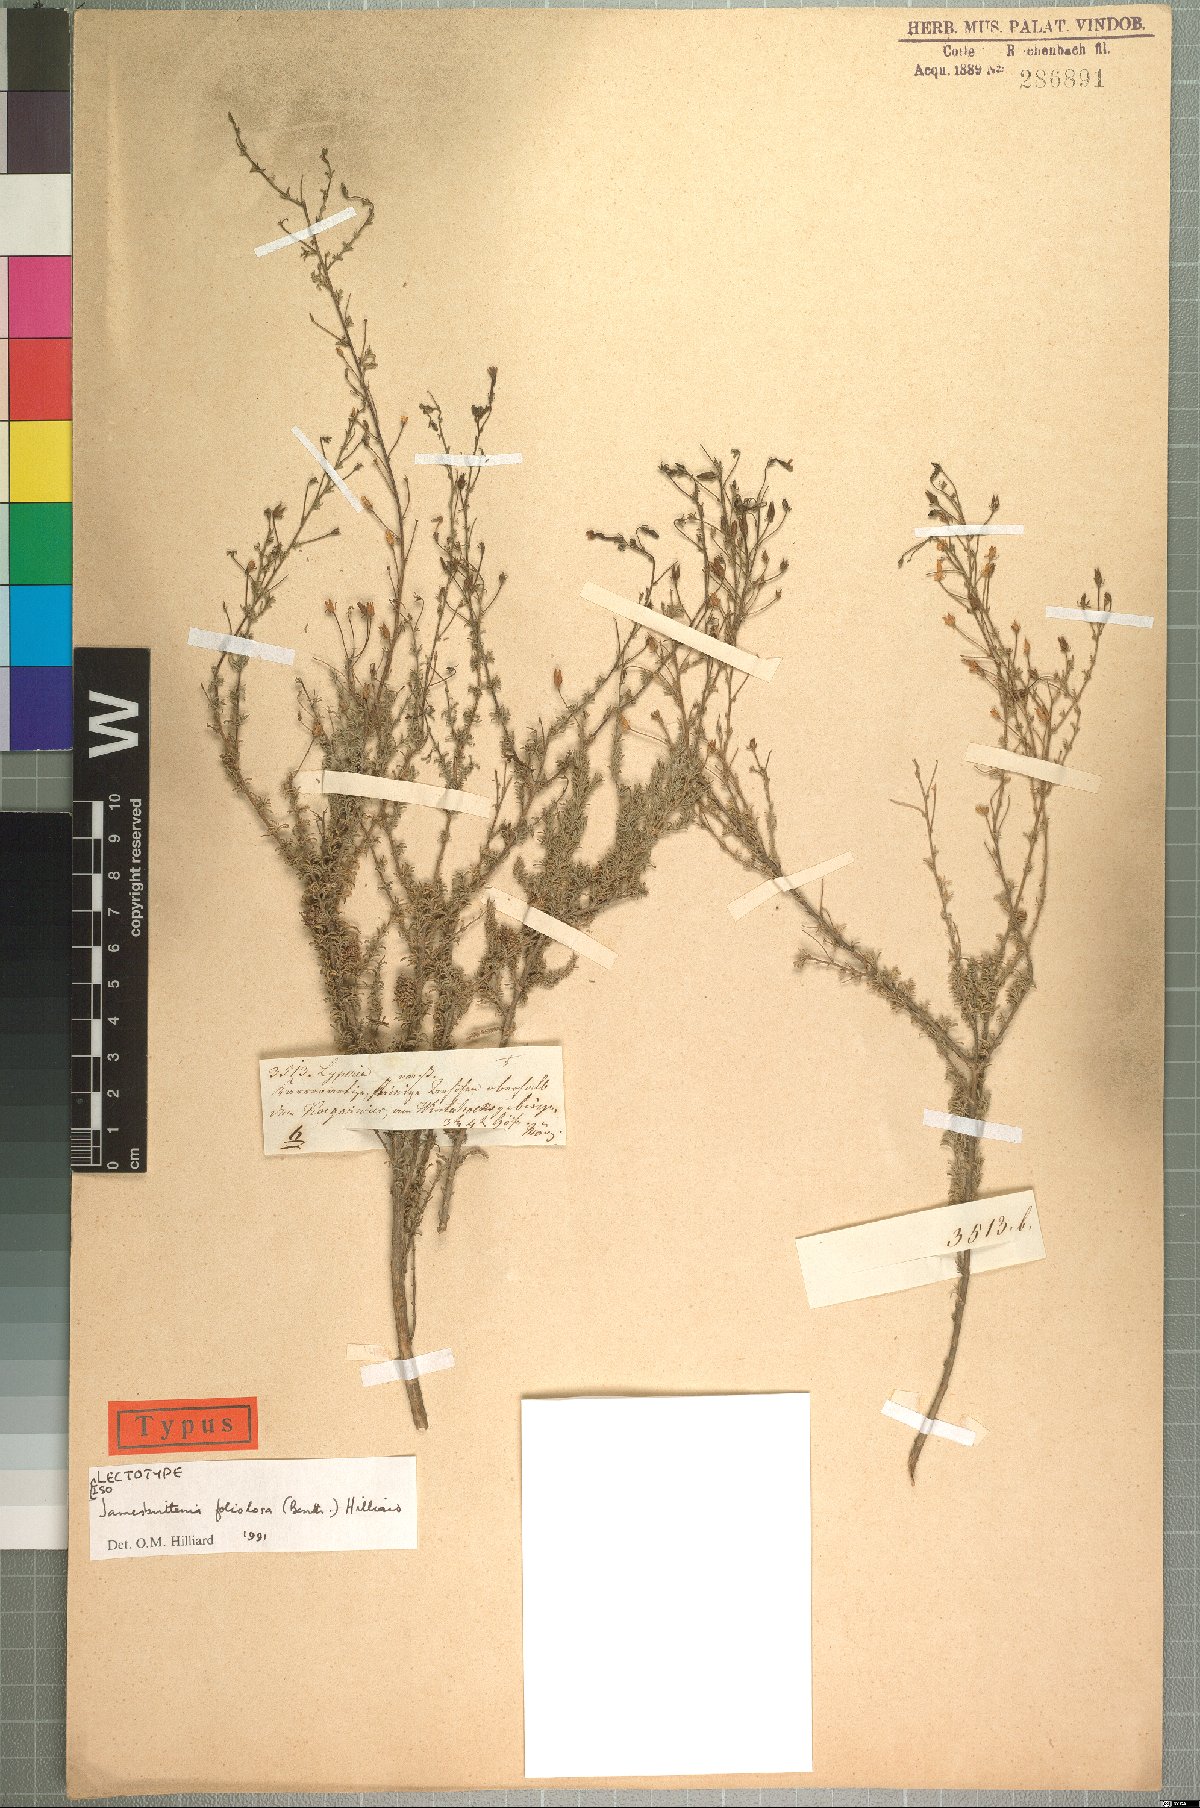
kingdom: Plantae
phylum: Tracheophyta
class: Magnoliopsida
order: Lamiales
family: Scrophulariaceae
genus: Jamesbrittenia
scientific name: Jamesbrittenia foliolosa
